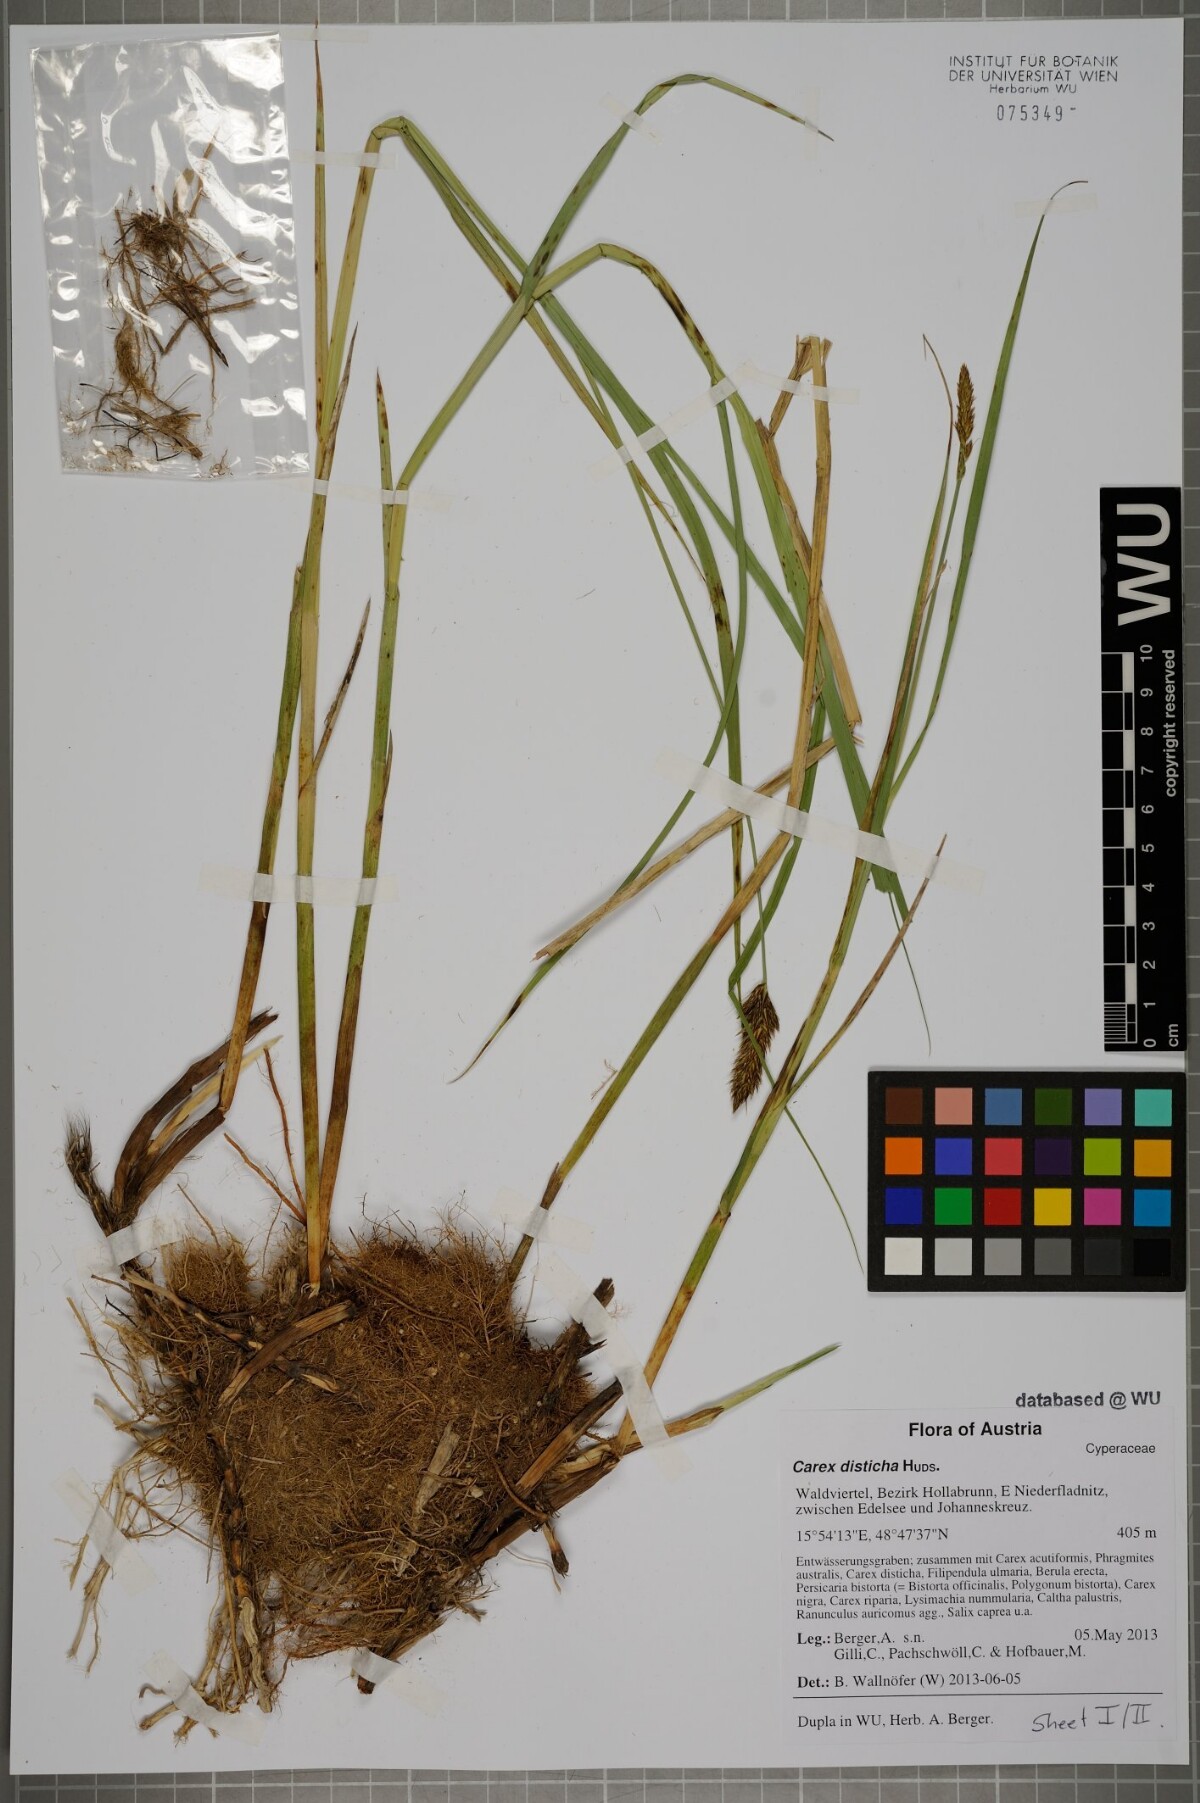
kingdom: Plantae
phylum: Tracheophyta
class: Liliopsida
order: Poales
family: Cyperaceae
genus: Carex
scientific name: Carex disticha
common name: Brown sedge
